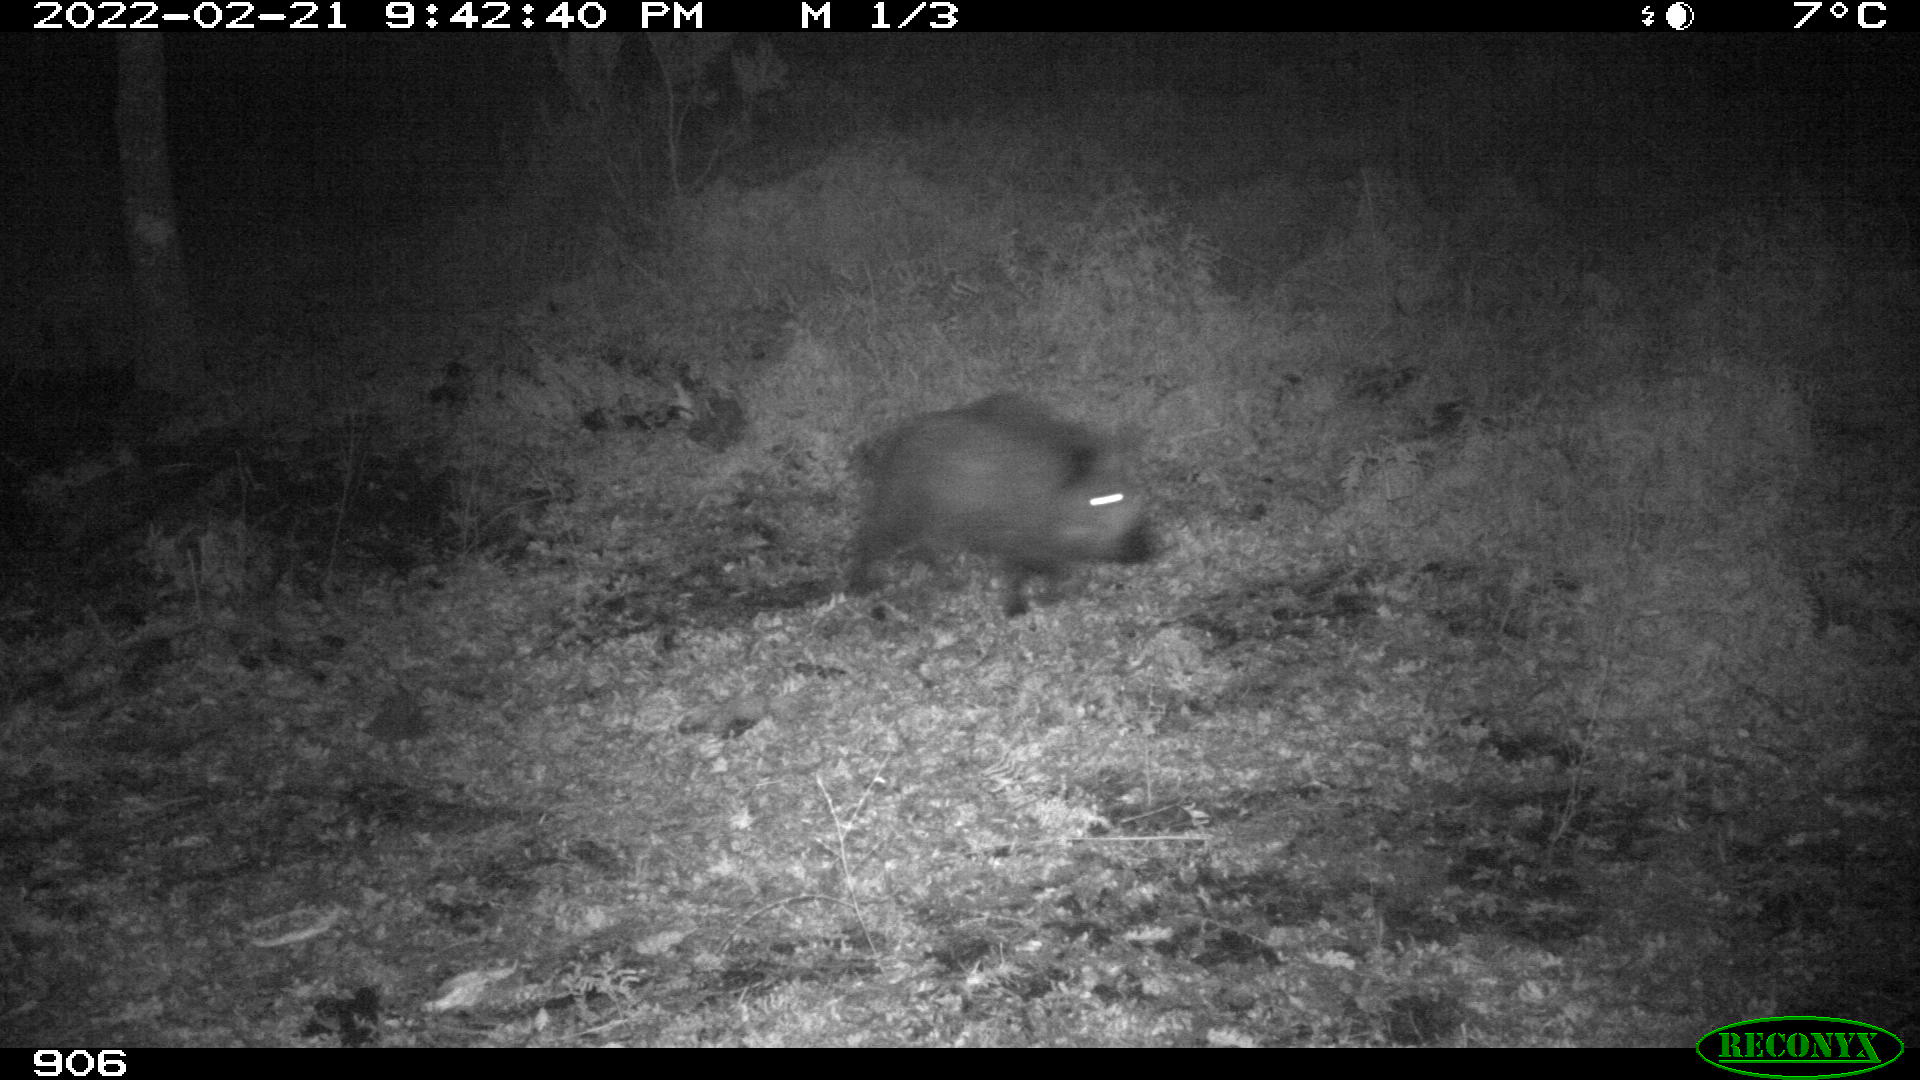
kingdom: Animalia
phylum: Chordata
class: Mammalia
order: Artiodactyla
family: Suidae
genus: Sus
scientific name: Sus scrofa
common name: Wild boar
